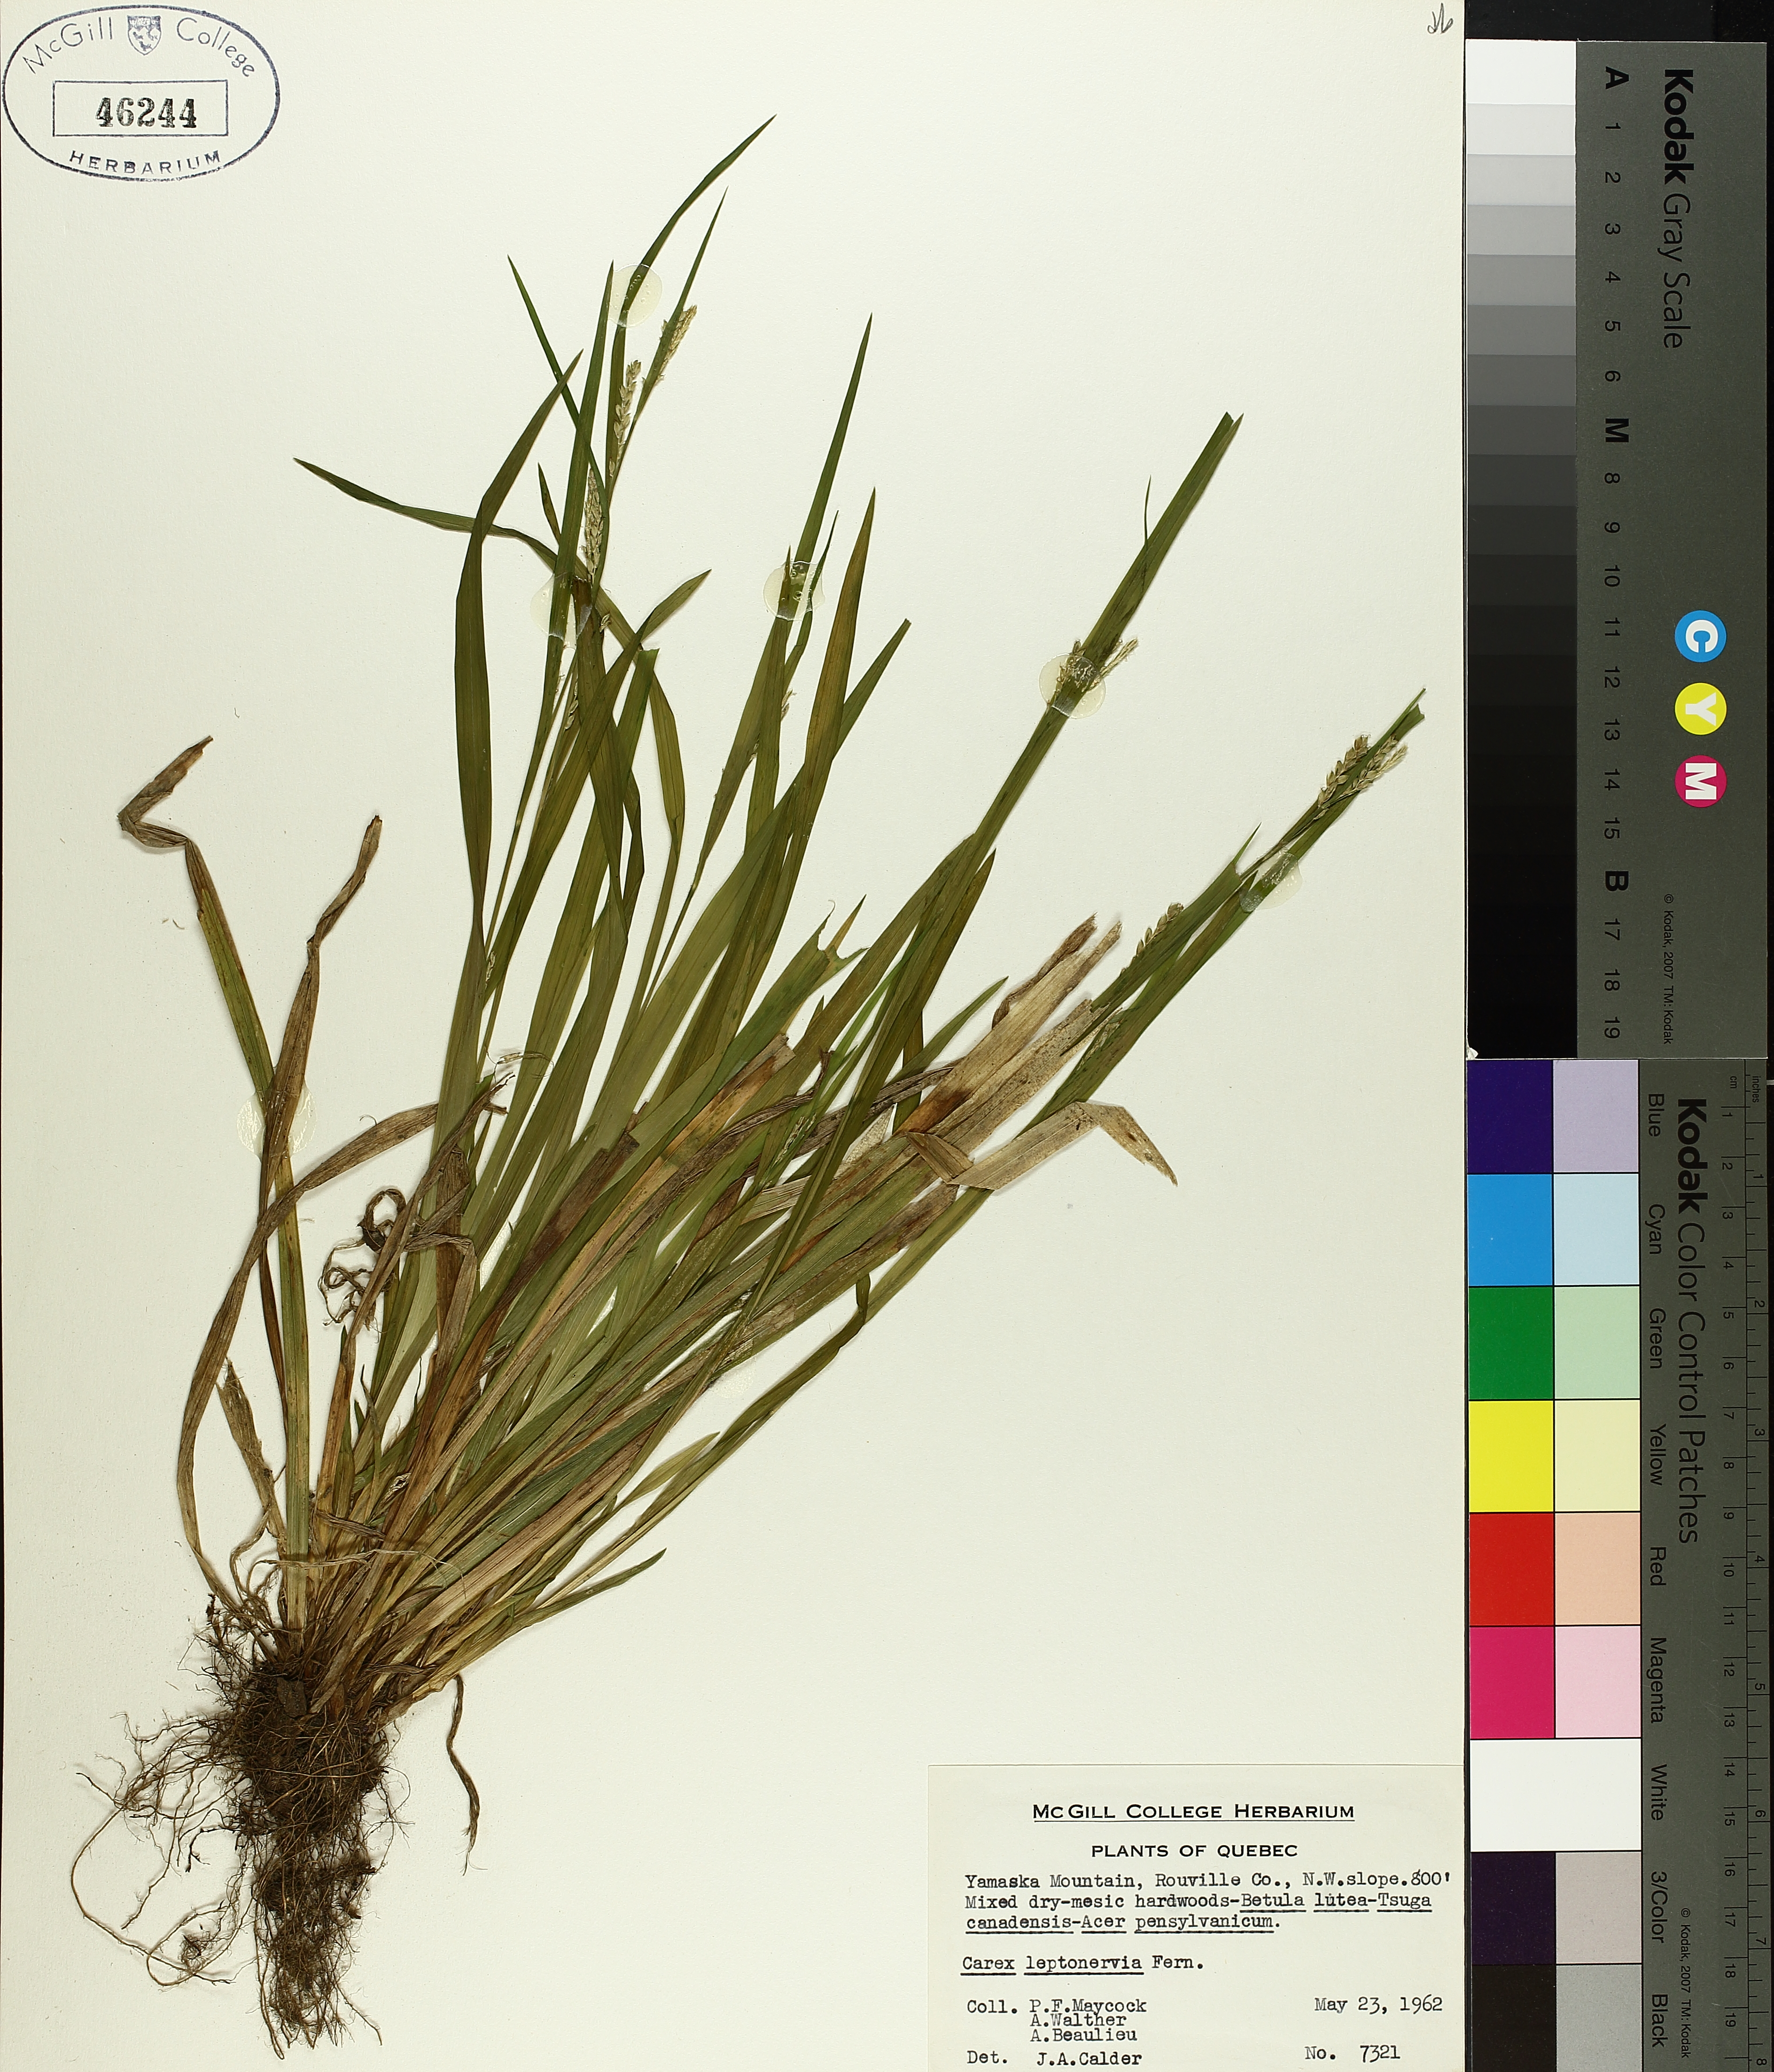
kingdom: Plantae
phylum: Tracheophyta
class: Liliopsida
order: Poales
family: Cyperaceae
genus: Carex
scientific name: Carex leptonervia
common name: Few-nerved wood sedge
